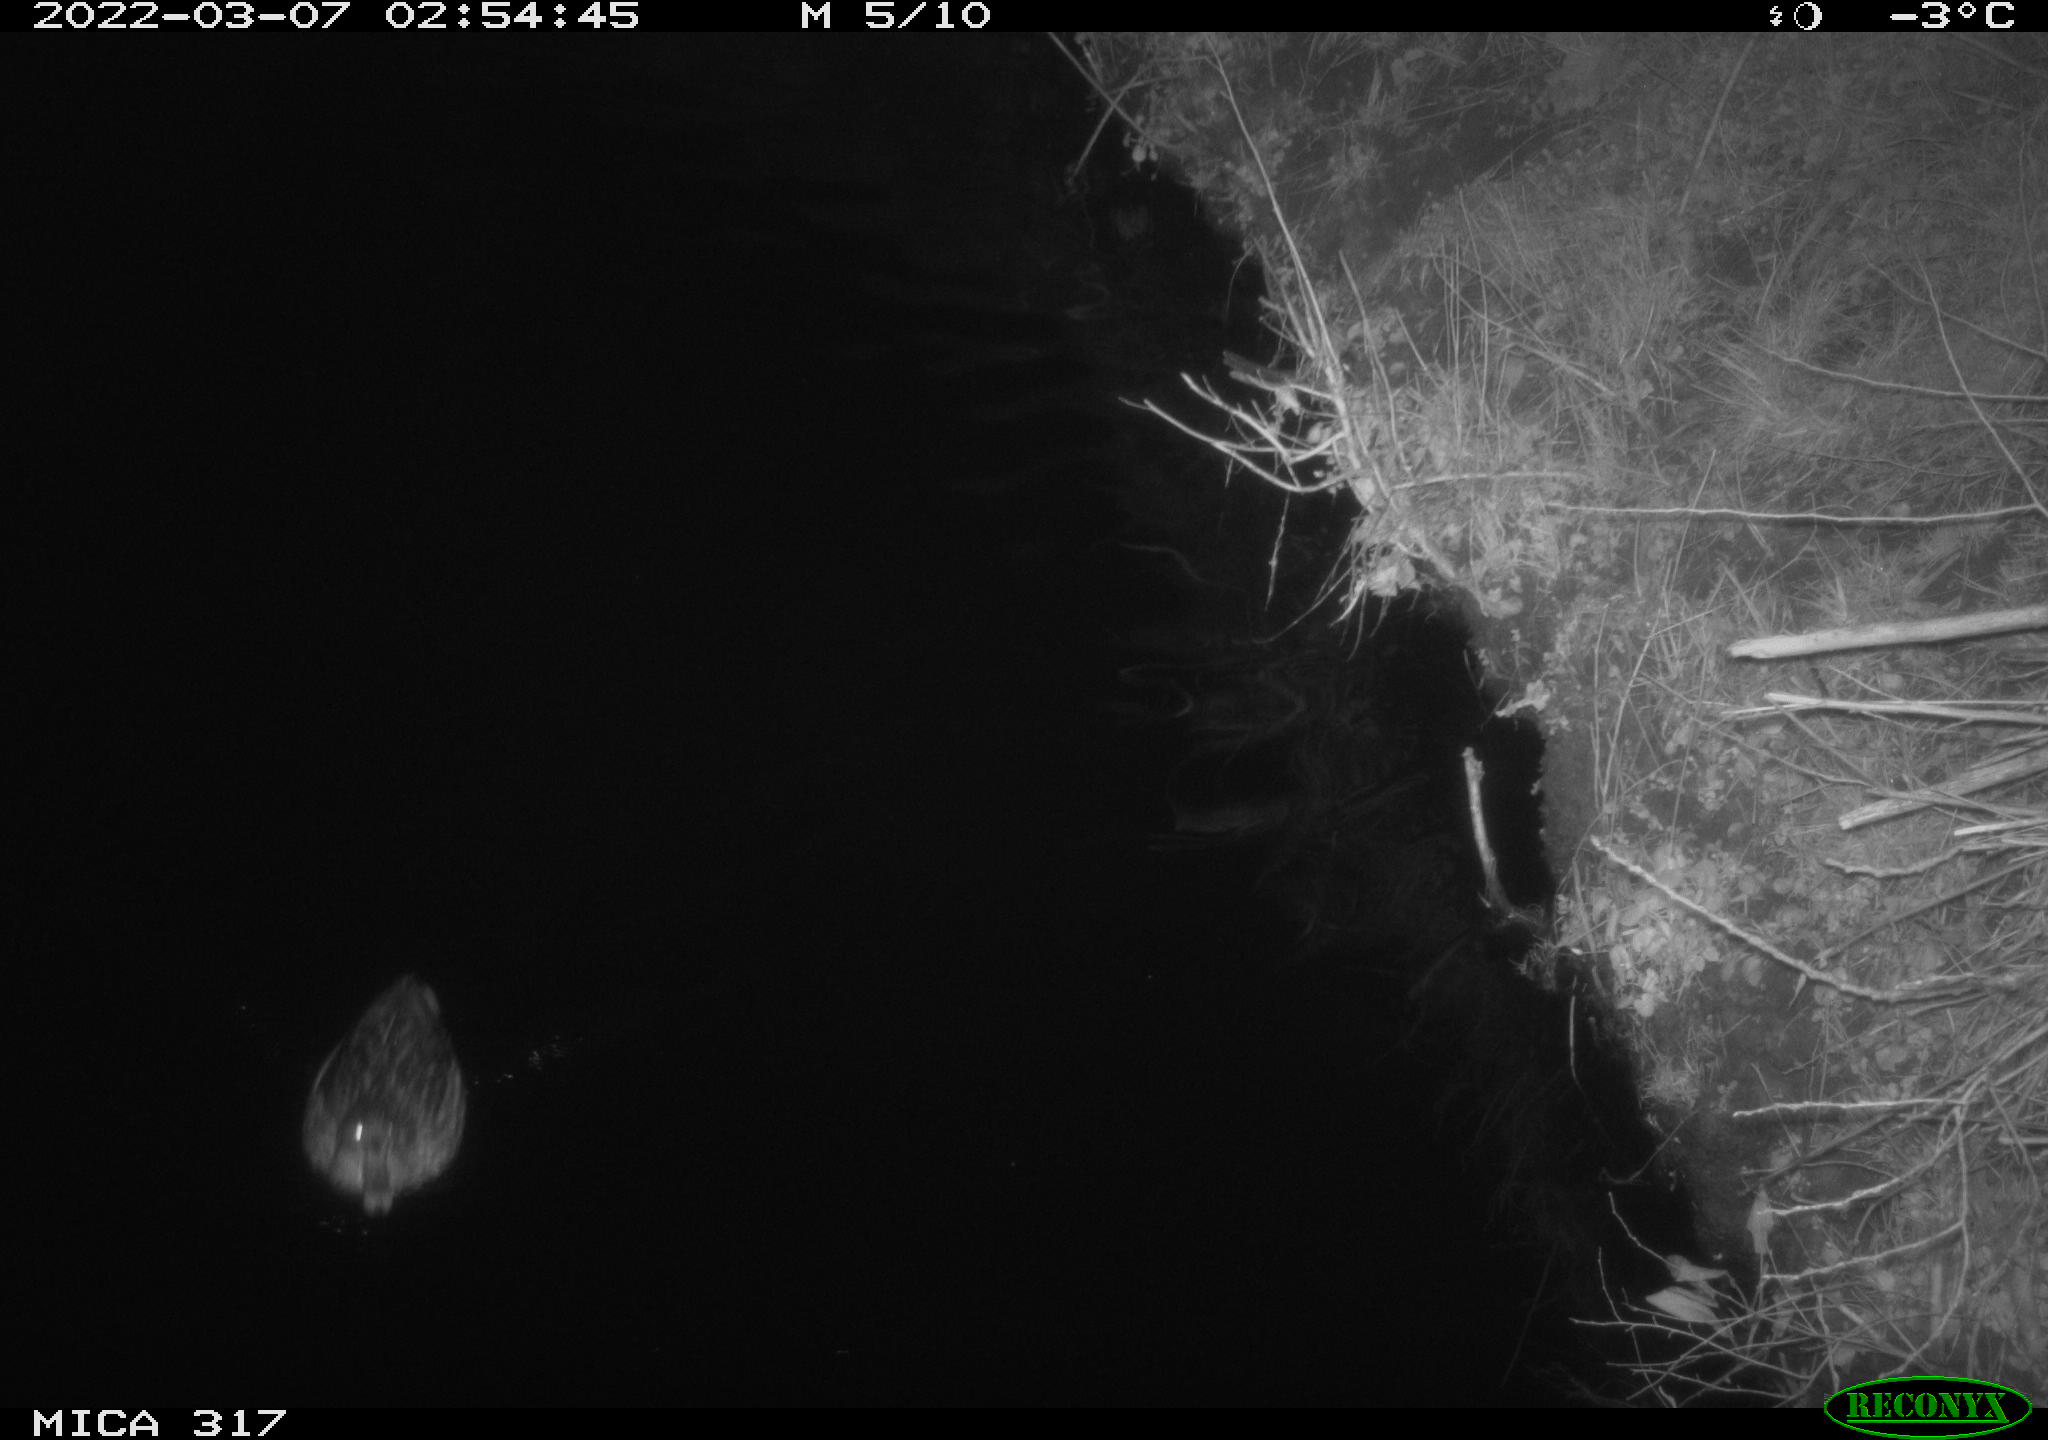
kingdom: Animalia
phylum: Chordata
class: Aves
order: Anseriformes
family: Anatidae
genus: Anas
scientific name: Anas platyrhynchos
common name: Mallard
